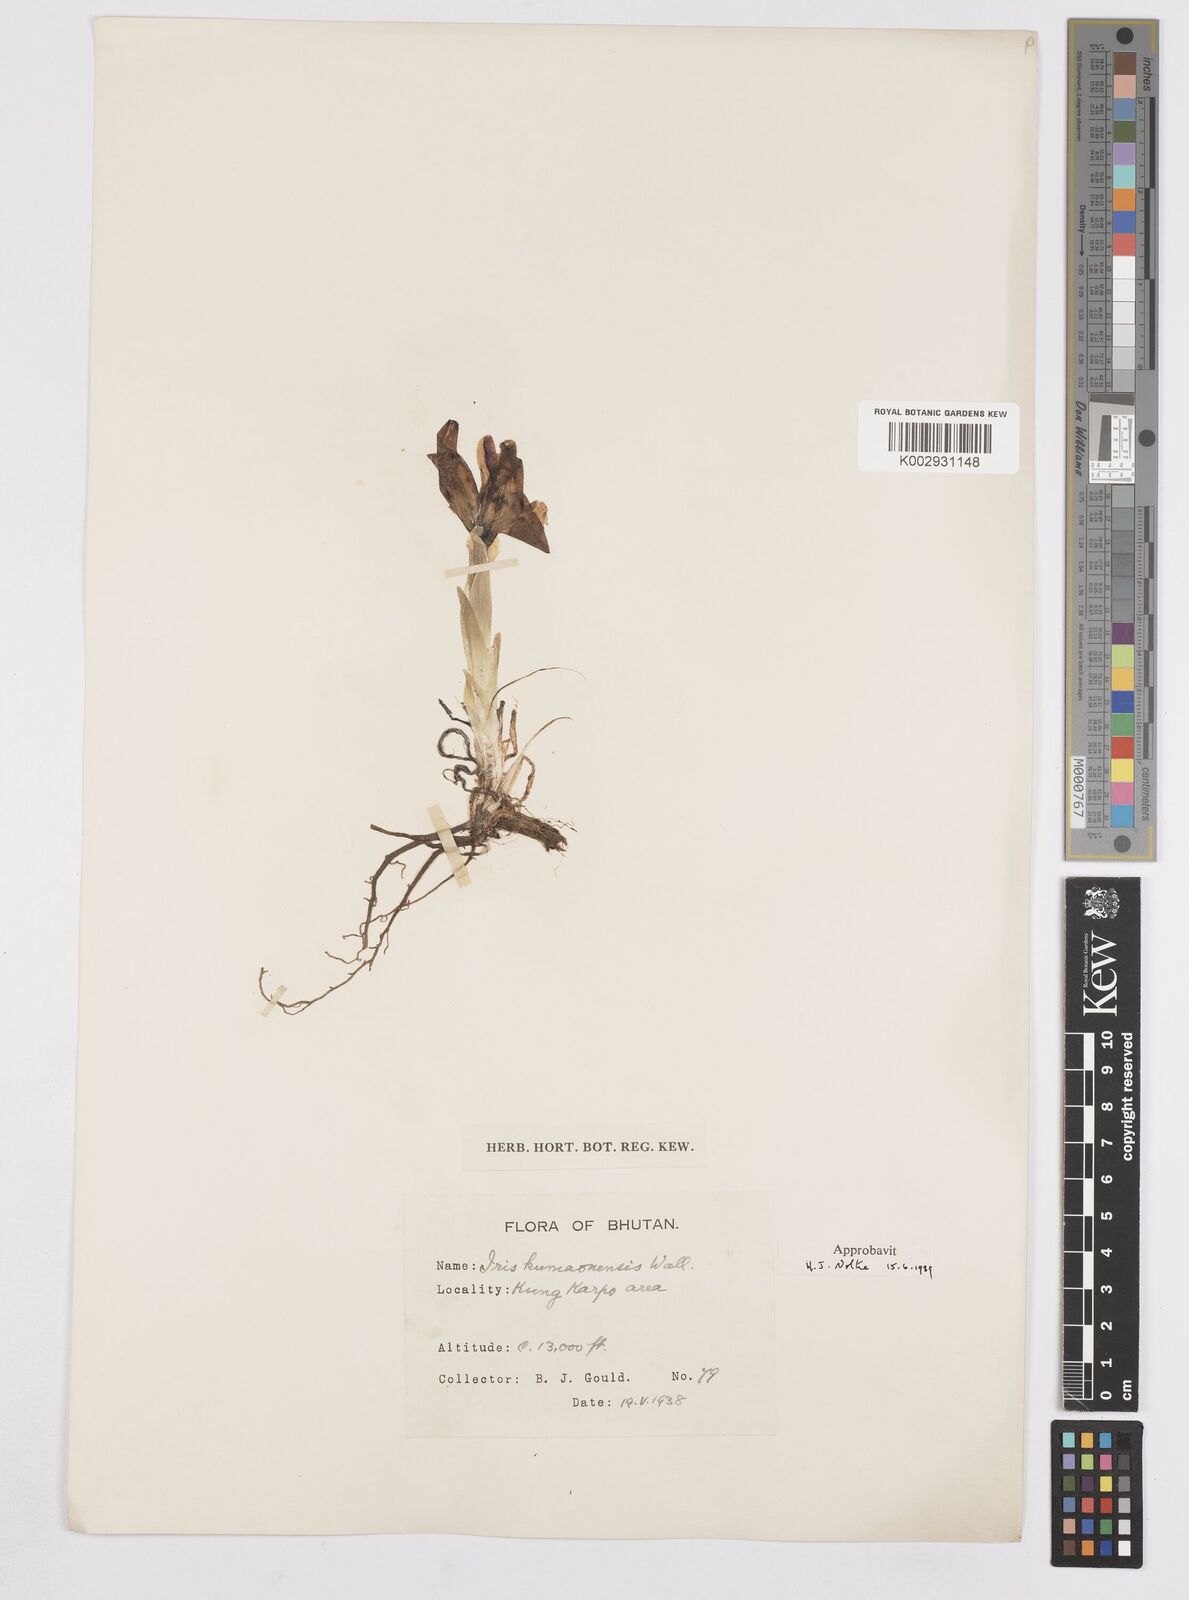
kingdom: Plantae
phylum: Tracheophyta
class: Liliopsida
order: Asparagales
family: Iridaceae
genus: Iris
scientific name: Iris kemaonensis
